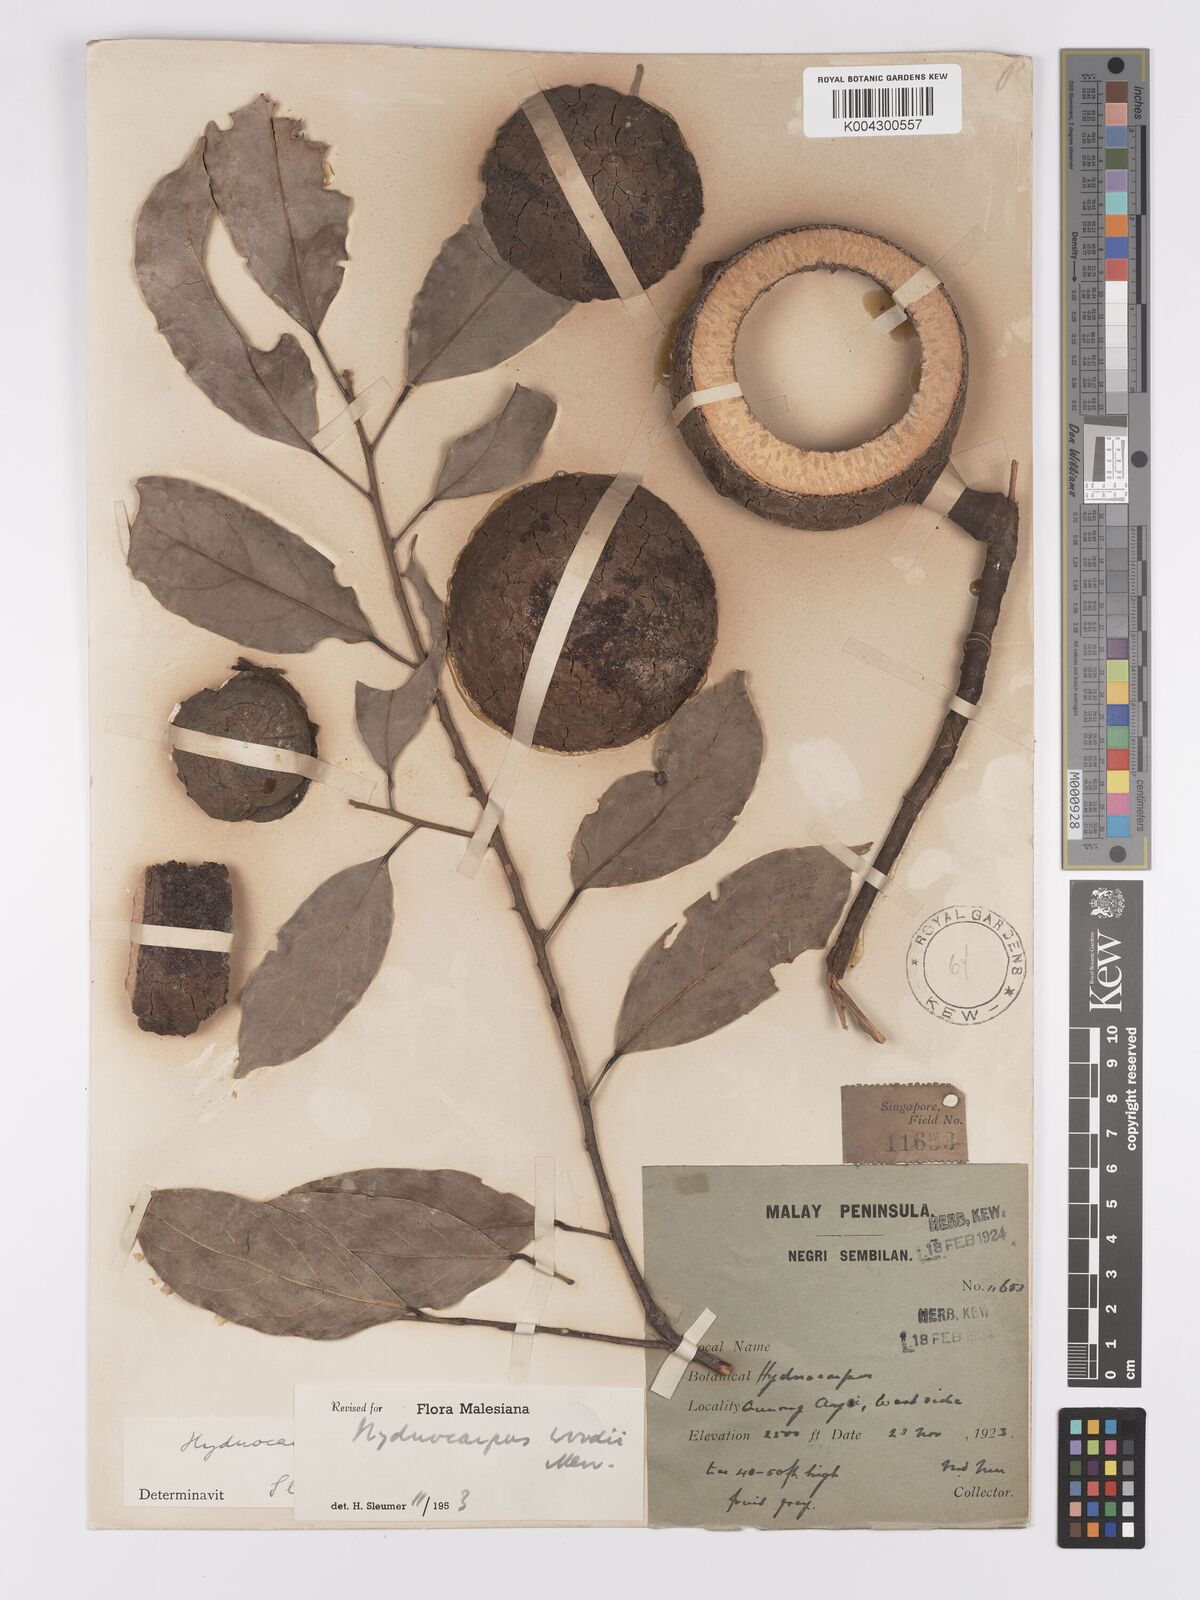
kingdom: Plantae
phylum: Tracheophyta
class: Magnoliopsida
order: Malpighiales
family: Achariaceae
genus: Hydnocarpus
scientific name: Hydnocarpus woodii
